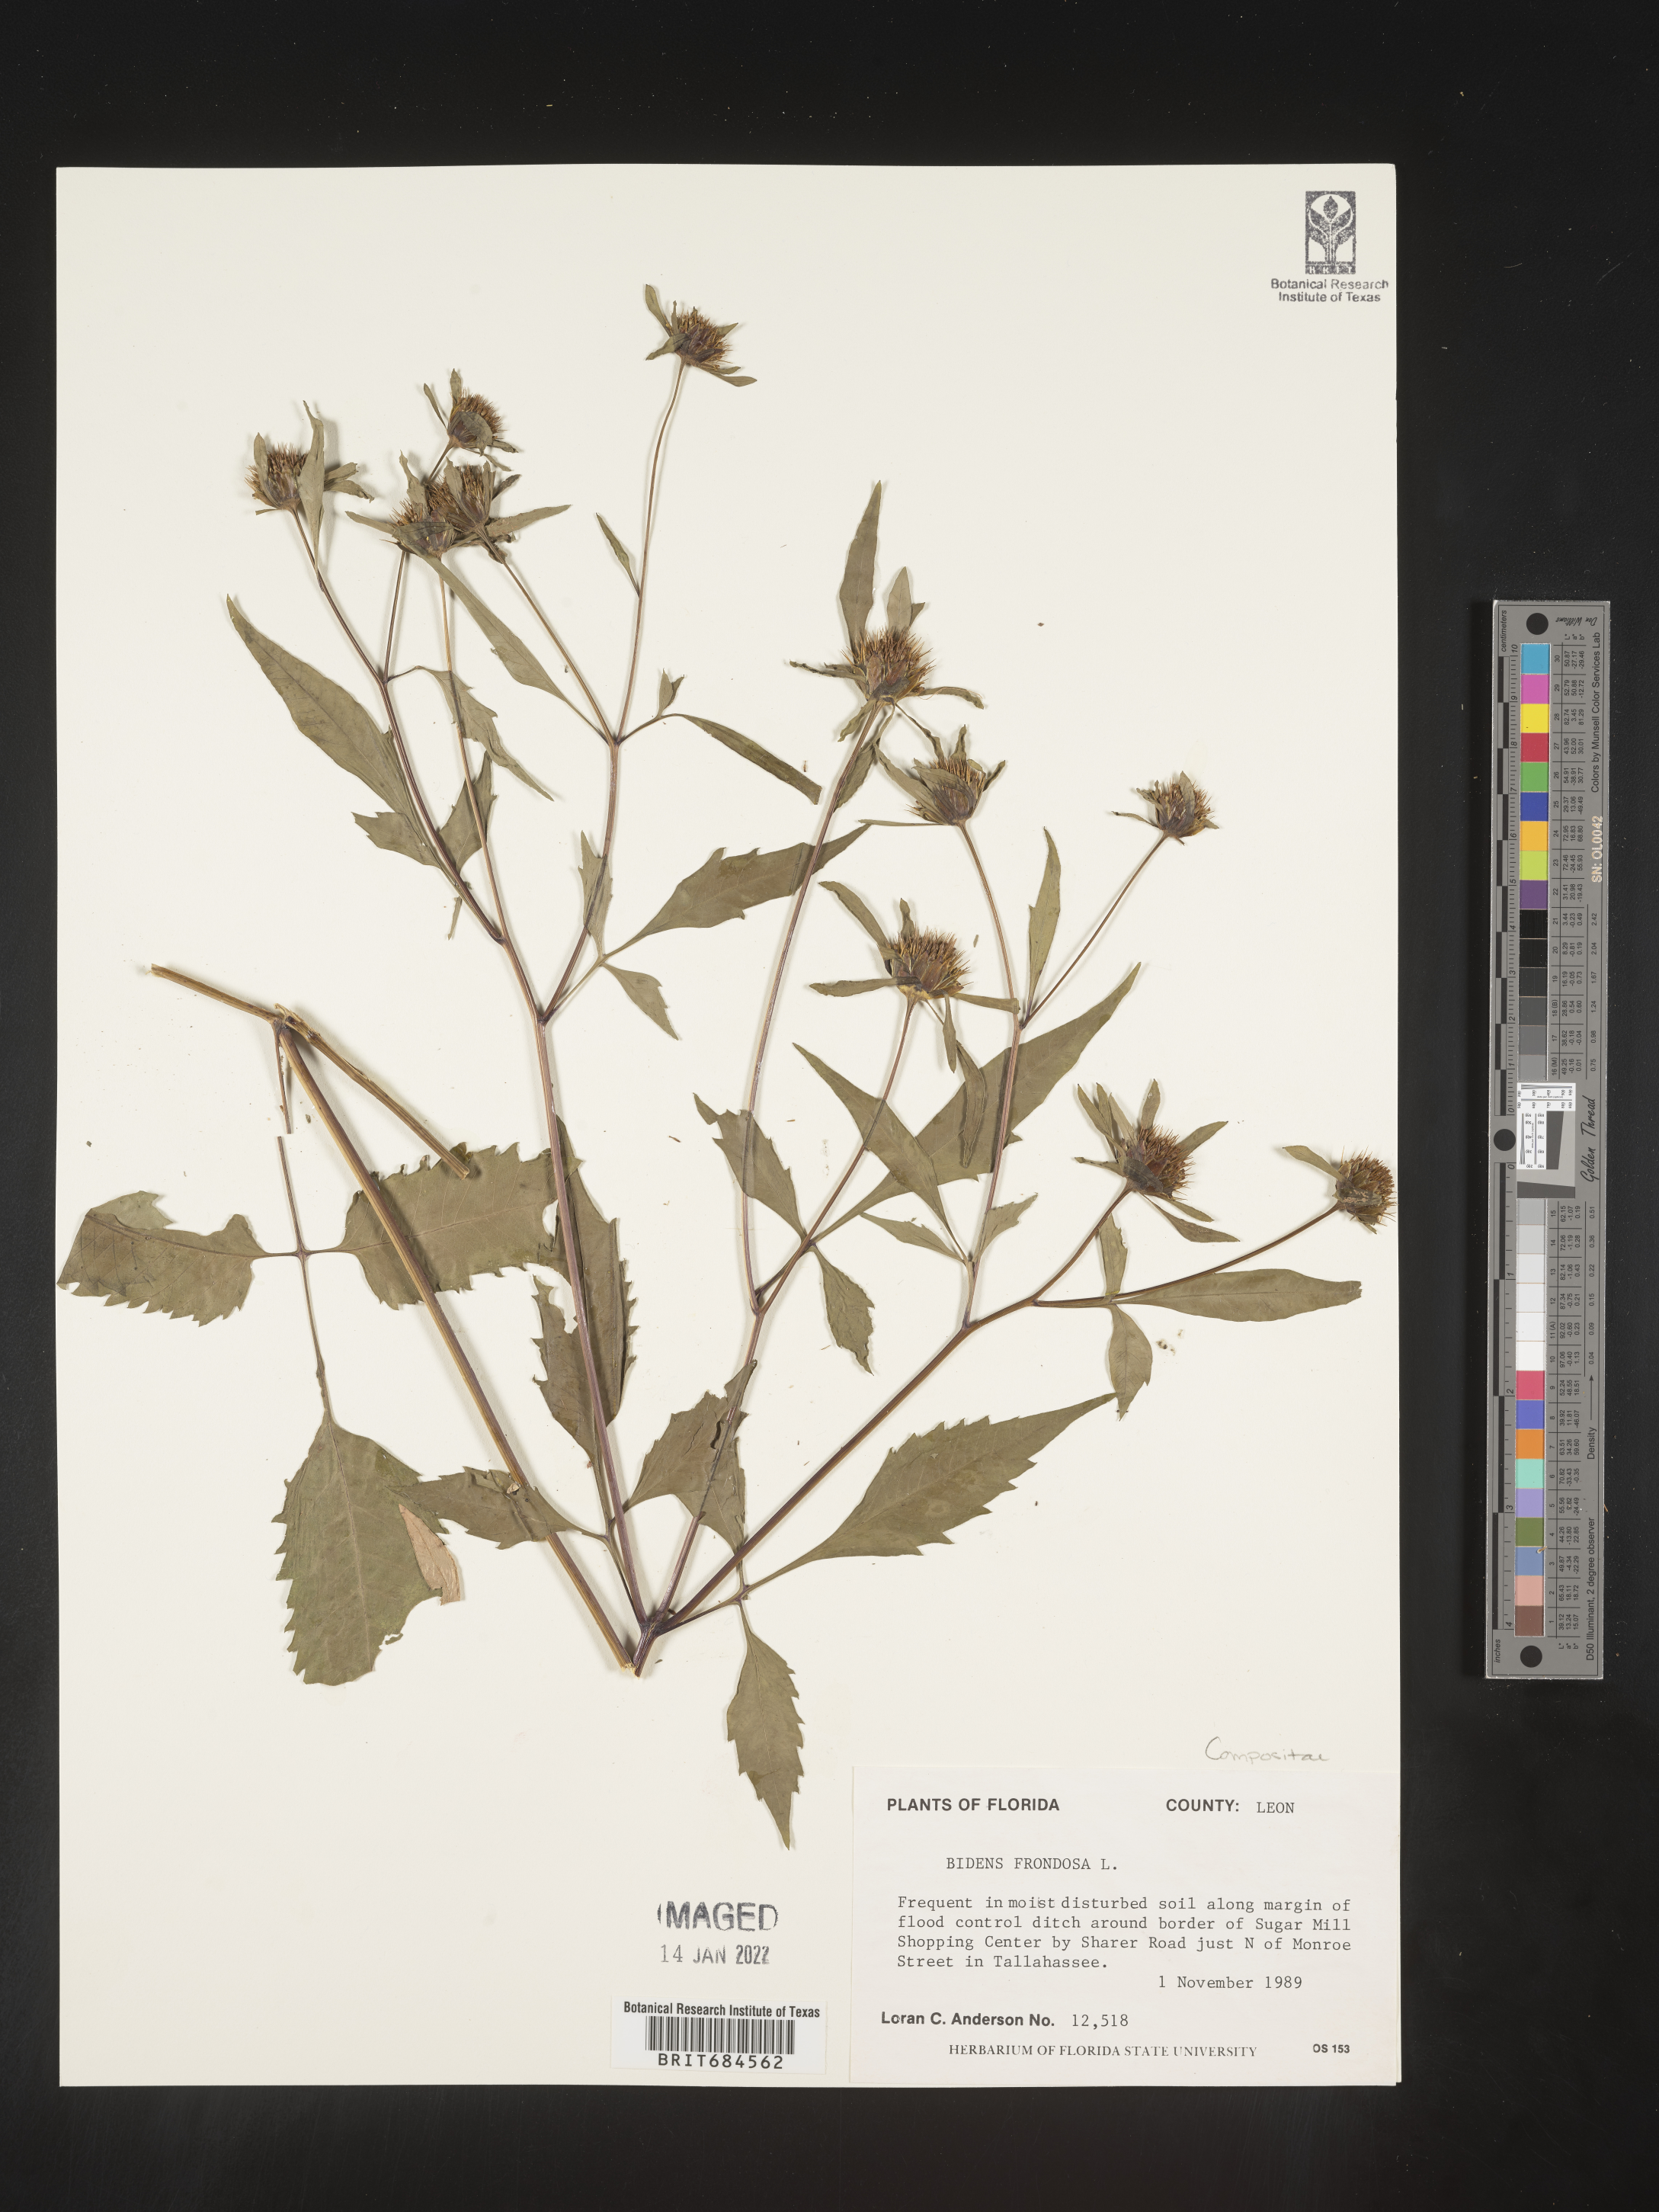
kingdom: Plantae
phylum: Tracheophyta
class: Magnoliopsida
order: Asterales
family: Asteraceae
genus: Bidens
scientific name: Bidens frondosa
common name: Beggarticks
